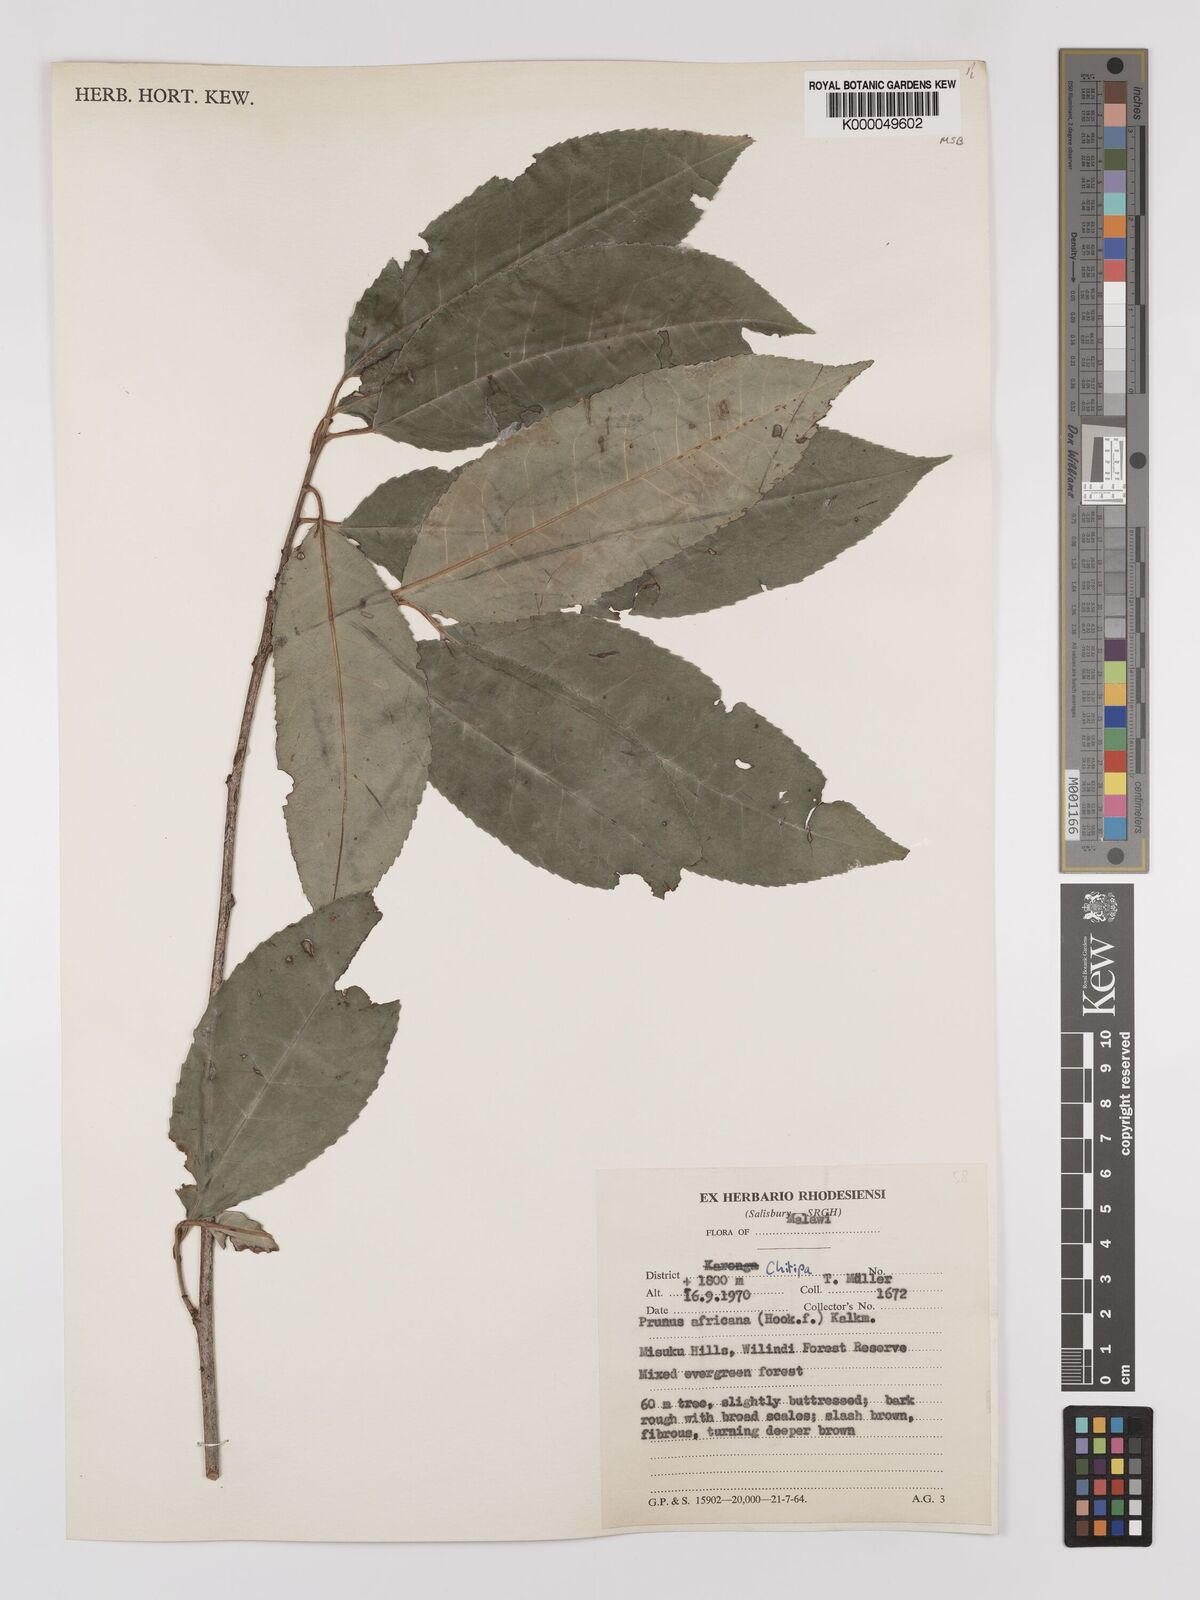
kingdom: Plantae
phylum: Tracheophyta
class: Magnoliopsida
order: Rosales
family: Rosaceae
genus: Prunus
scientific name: Prunus africana
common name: African cherry
